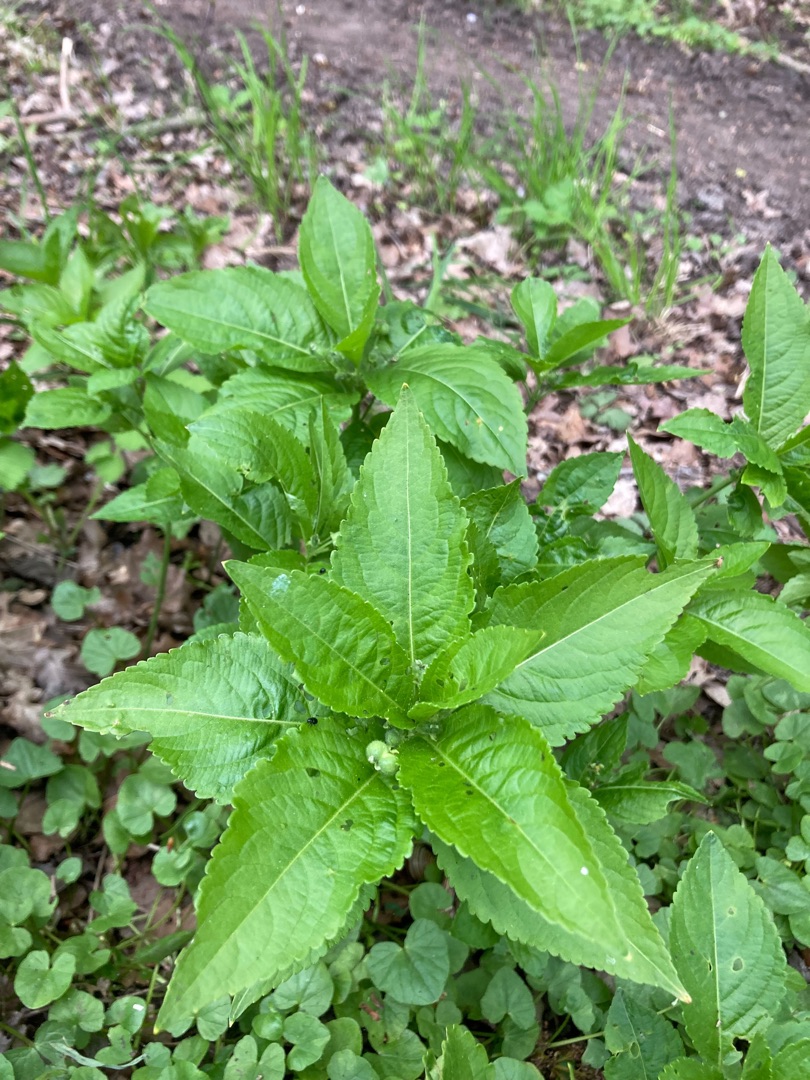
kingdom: Plantae
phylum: Tracheophyta
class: Magnoliopsida
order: Malpighiales
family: Euphorbiaceae
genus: Mercurialis
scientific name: Mercurialis perennis
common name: Almindelig bingelurt
